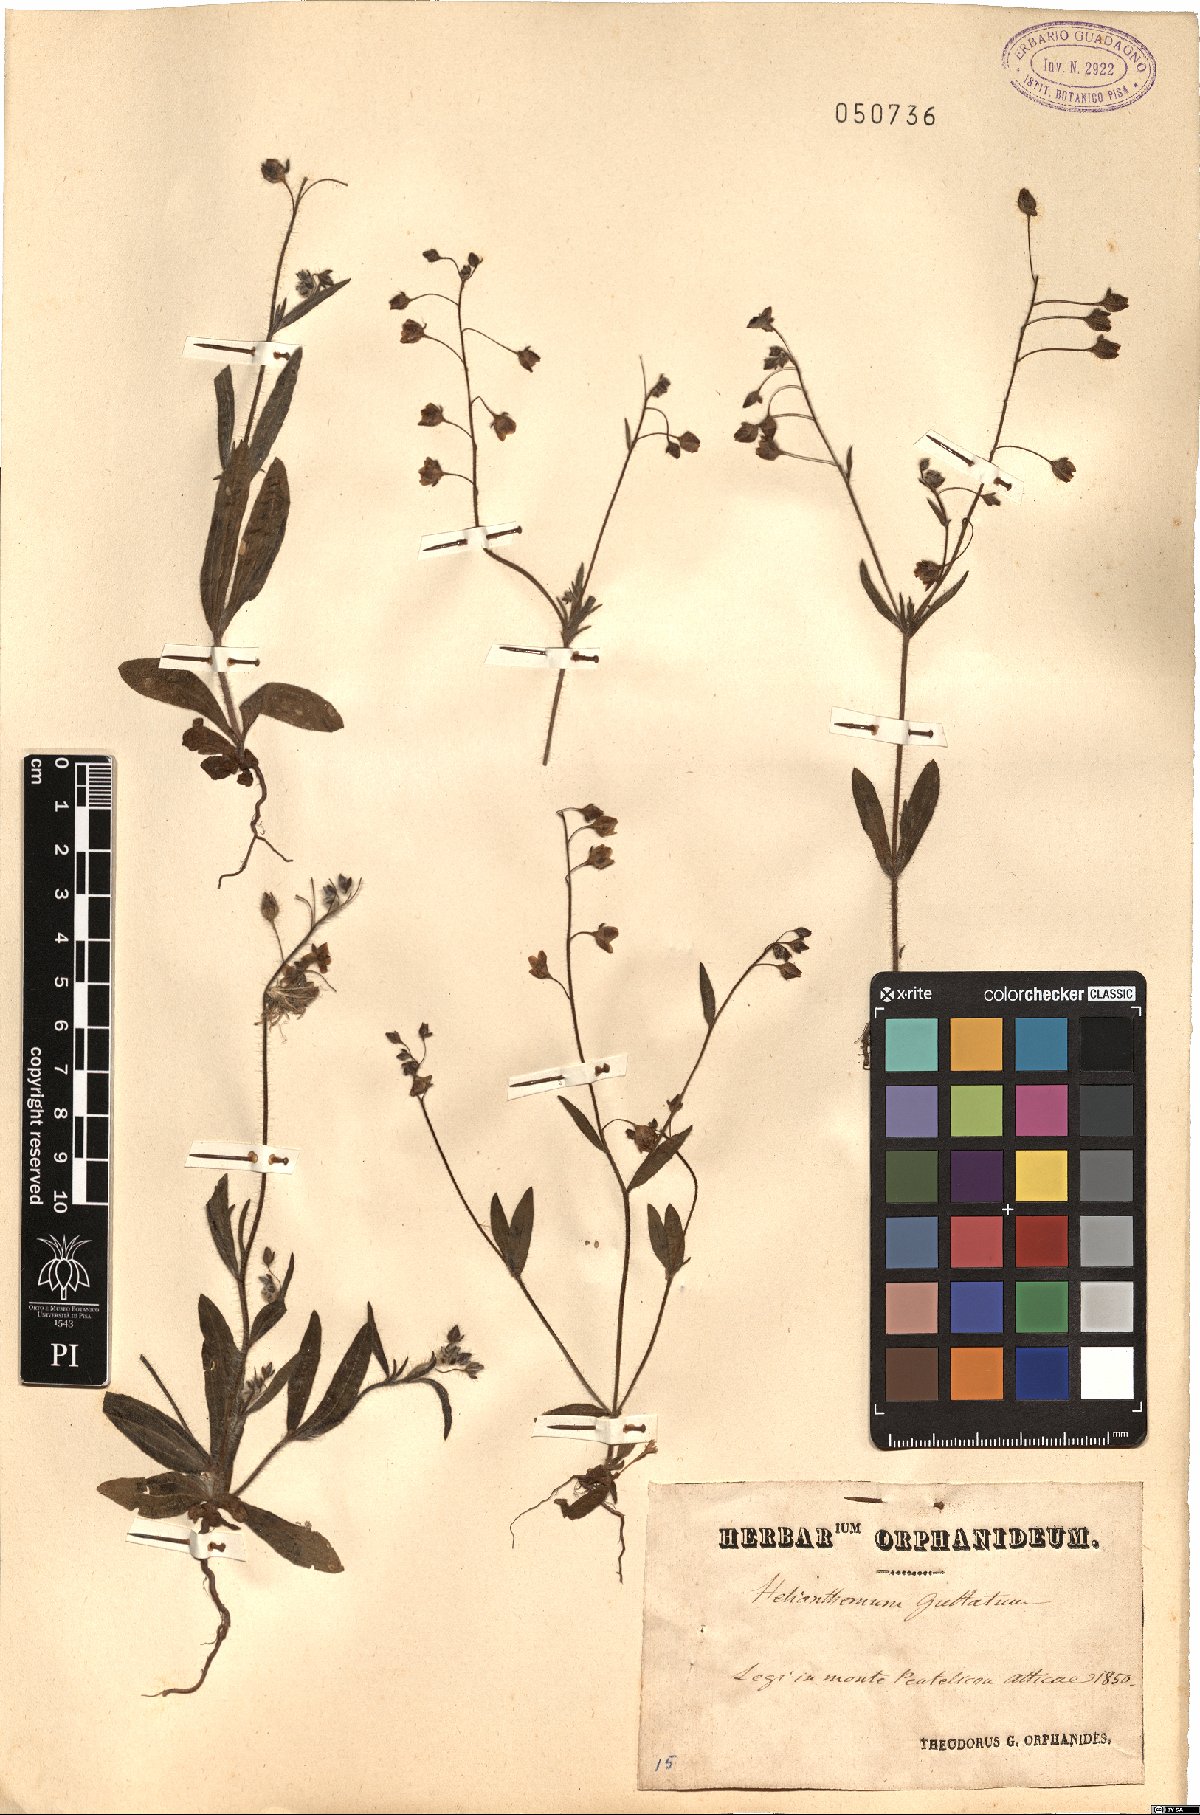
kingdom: Plantae
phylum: Tracheophyta
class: Magnoliopsida
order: Malvales
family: Cistaceae
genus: Tuberaria
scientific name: Tuberaria guttata
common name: Spotted rock-rose
